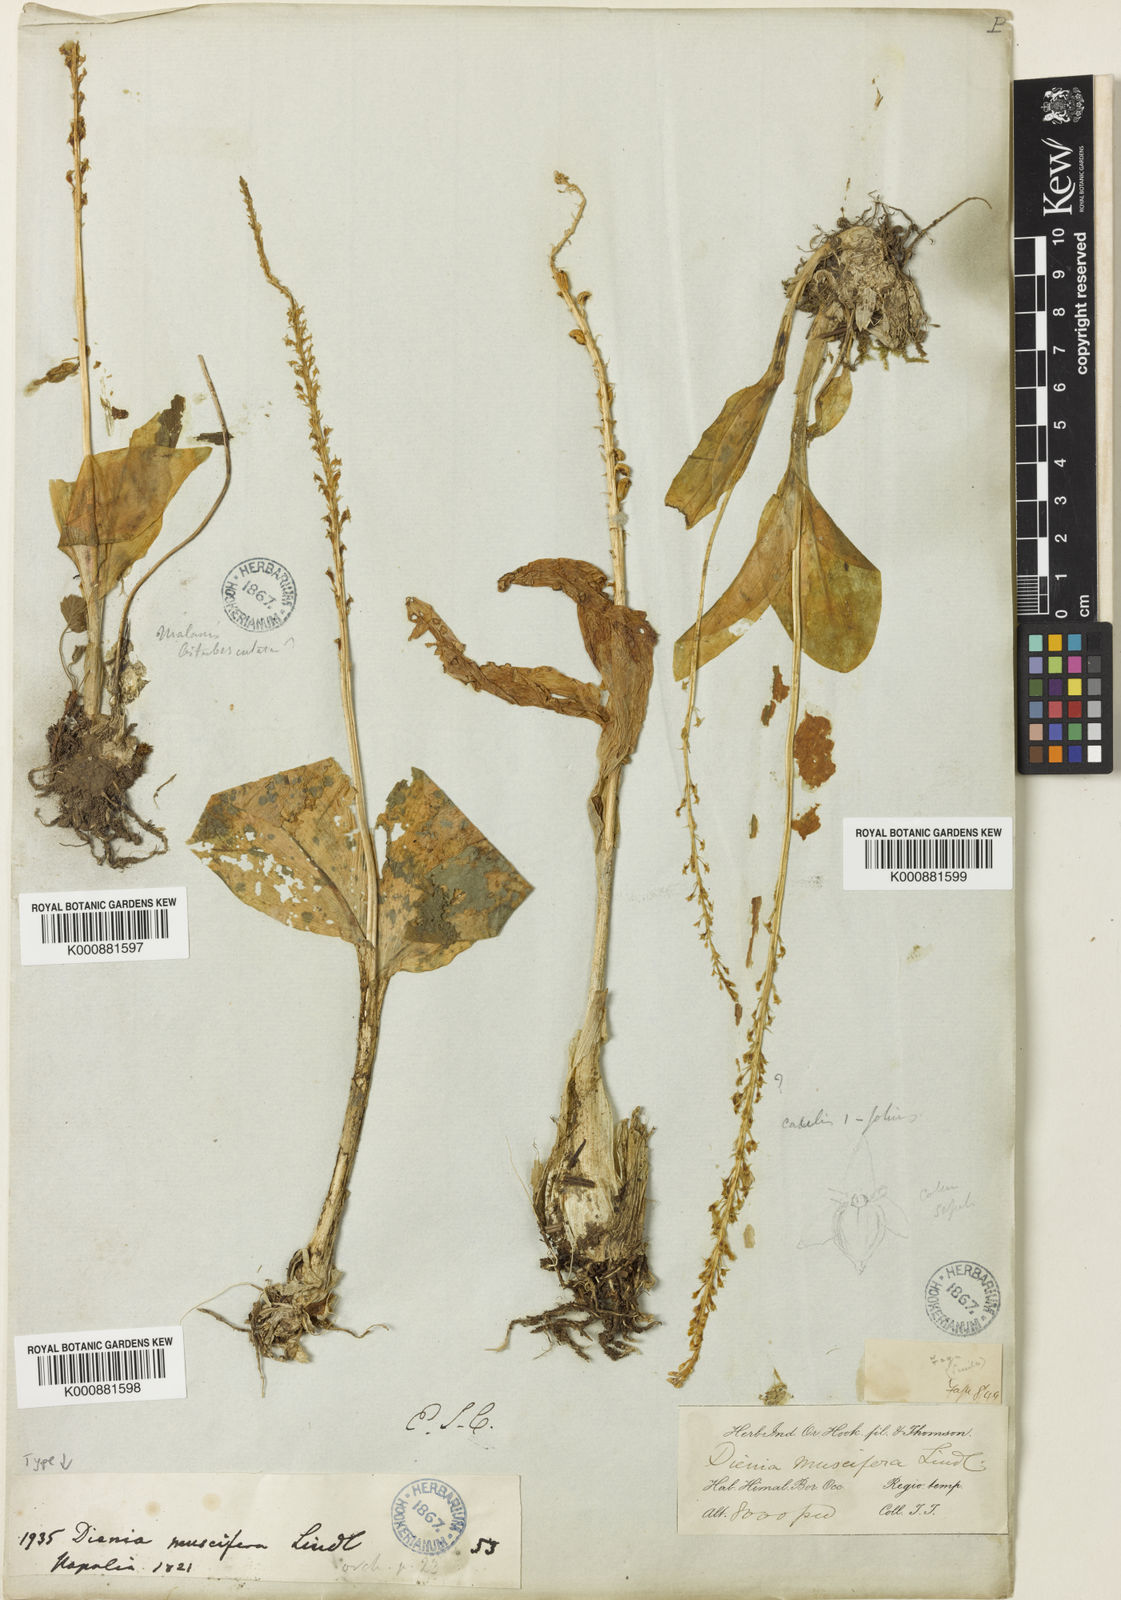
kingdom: Plantae
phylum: Tracheophyta
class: Liliopsida
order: Asparagales
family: Orchidaceae
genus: Malaxis
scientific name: Malaxis muscifera
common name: Adder-mouth orchid
